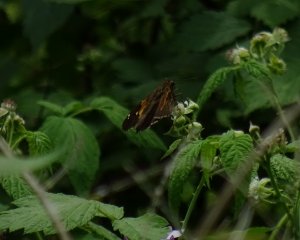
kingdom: Animalia
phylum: Arthropoda
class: Insecta
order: Lepidoptera
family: Hesperiidae
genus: Epargyreus
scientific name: Epargyreus clarus
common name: Silver-spotted Skipper
